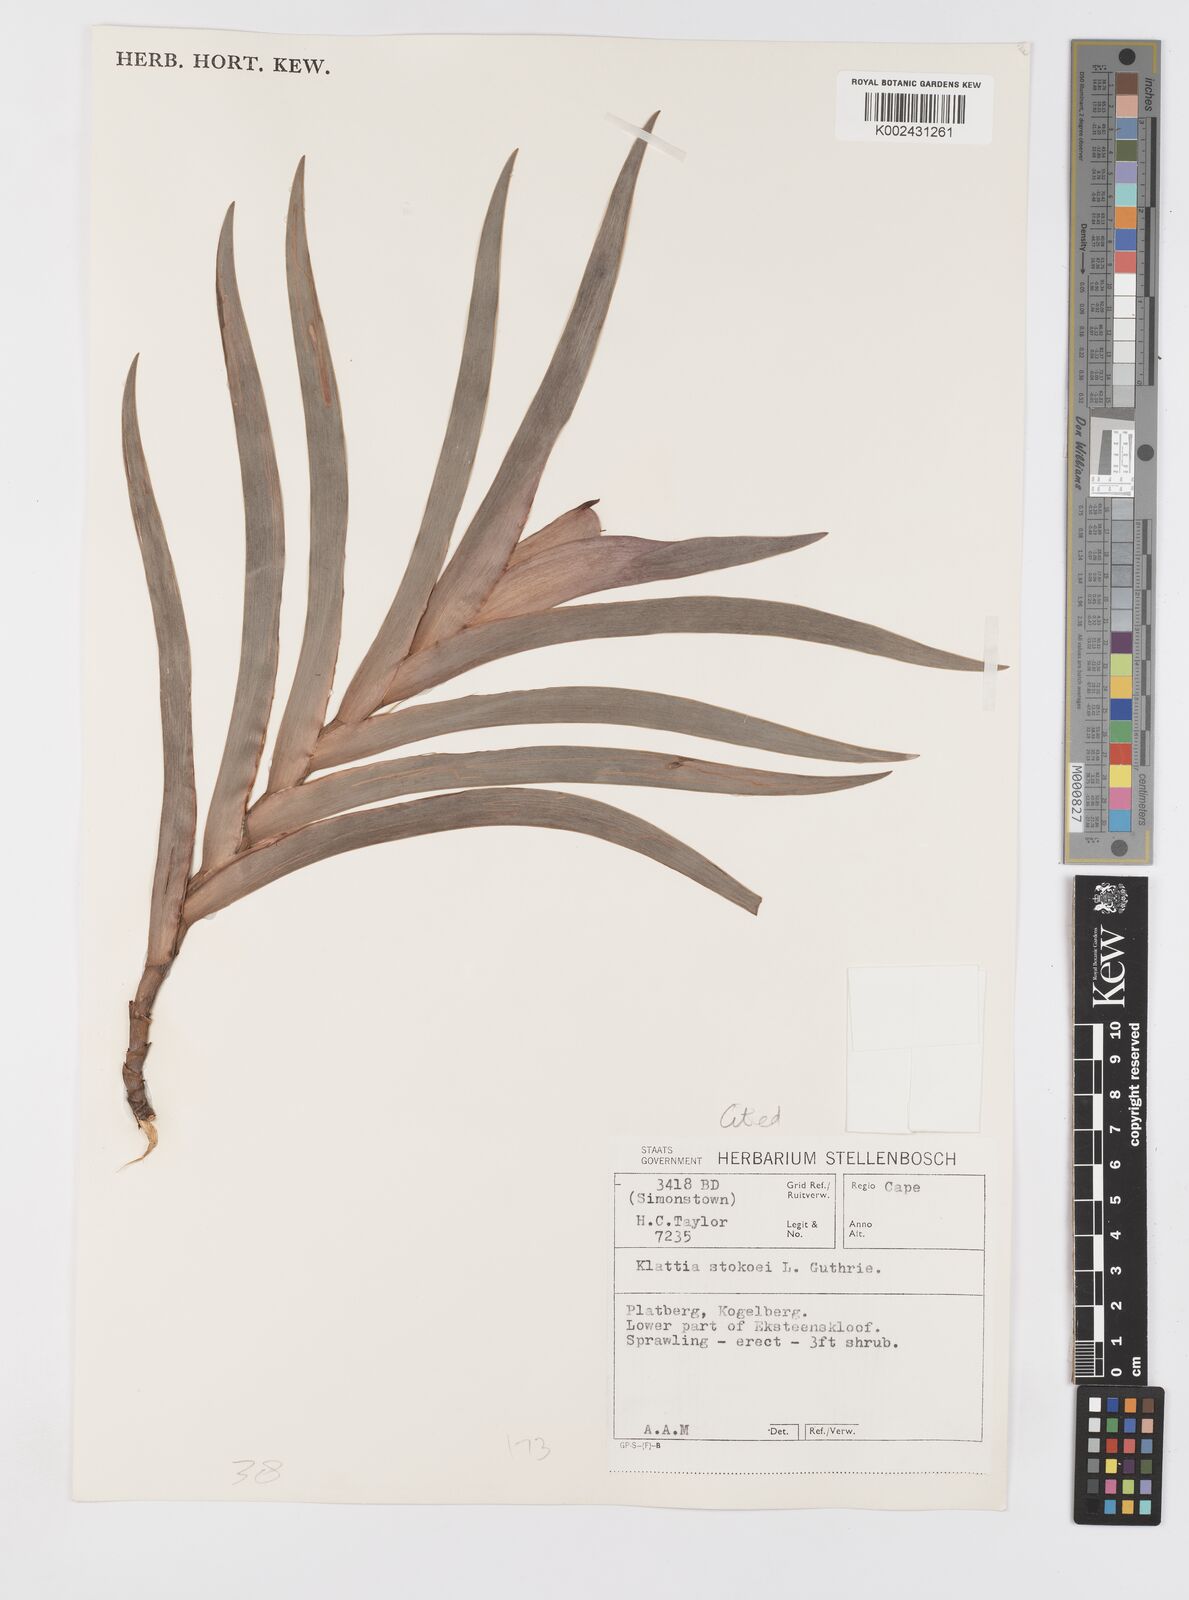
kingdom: Plantae
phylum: Tracheophyta
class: Liliopsida
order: Asparagales
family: Iridaceae
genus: Klattia
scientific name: Klattia stokoei
